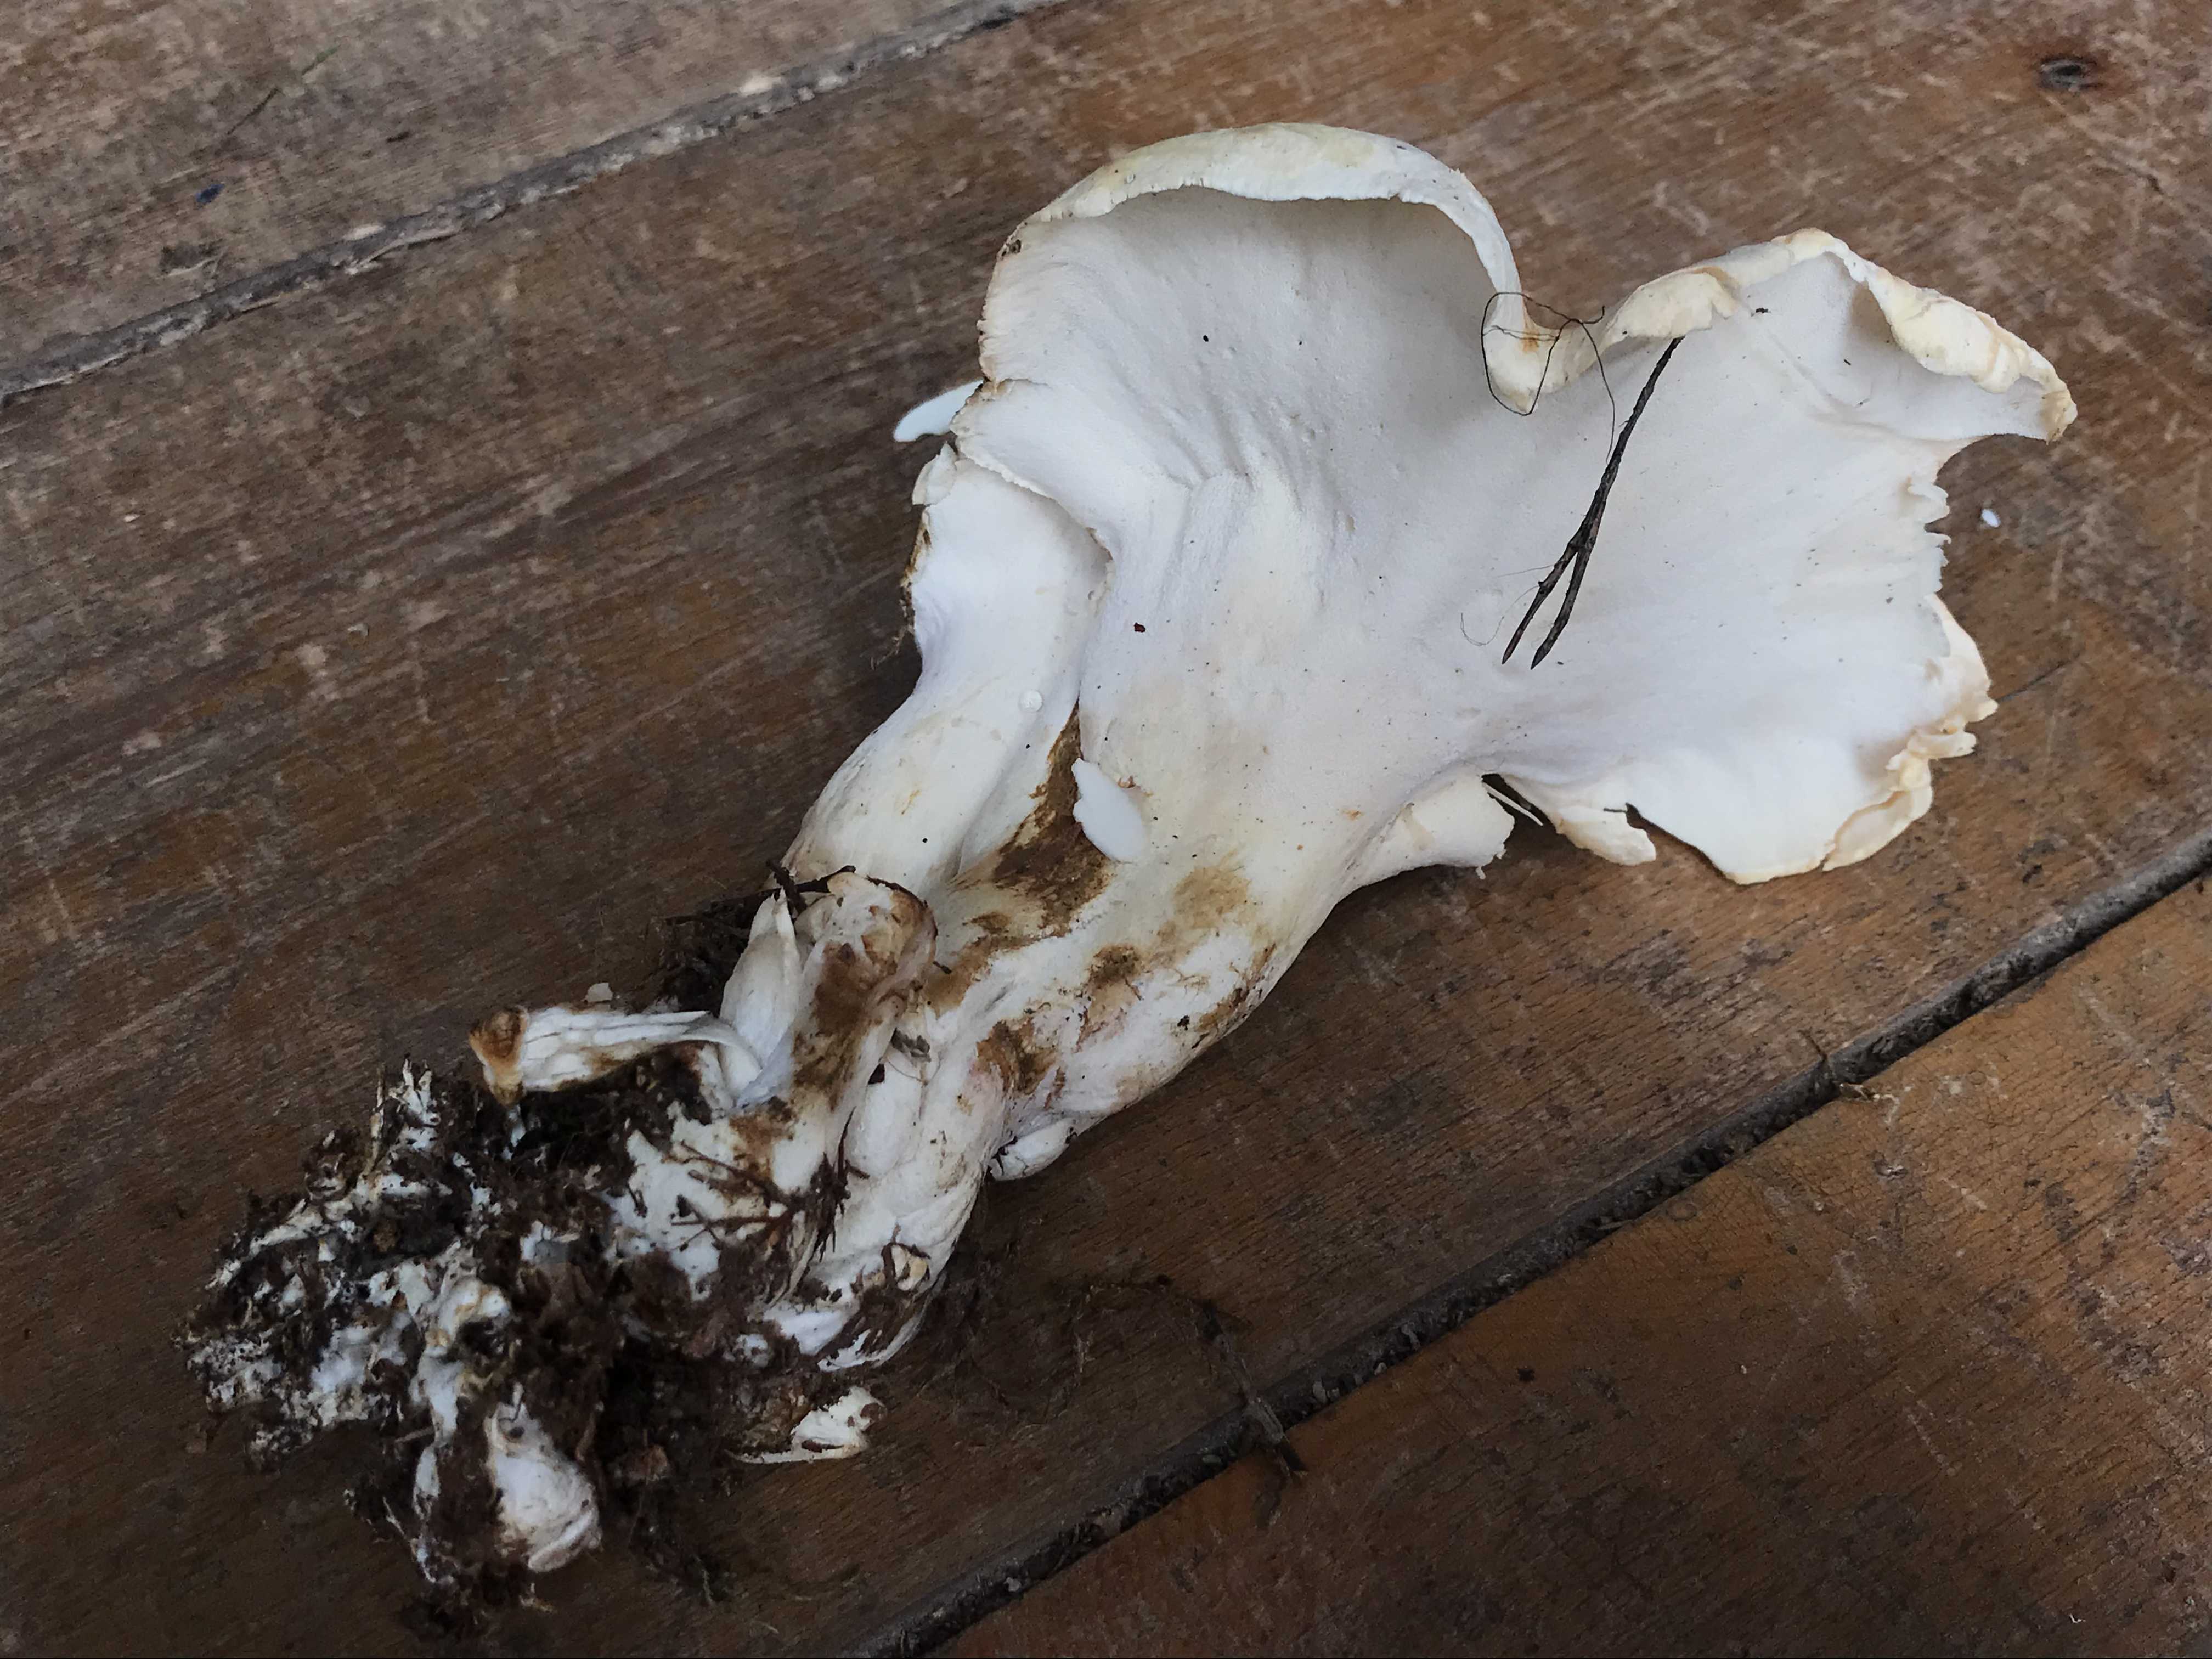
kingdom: Fungi
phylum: Basidiomycota
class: Agaricomycetes
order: Russulales
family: Albatrellaceae
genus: Albatrellus
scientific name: Albatrellus ovinus
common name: hvidlig fåreporesvamp
